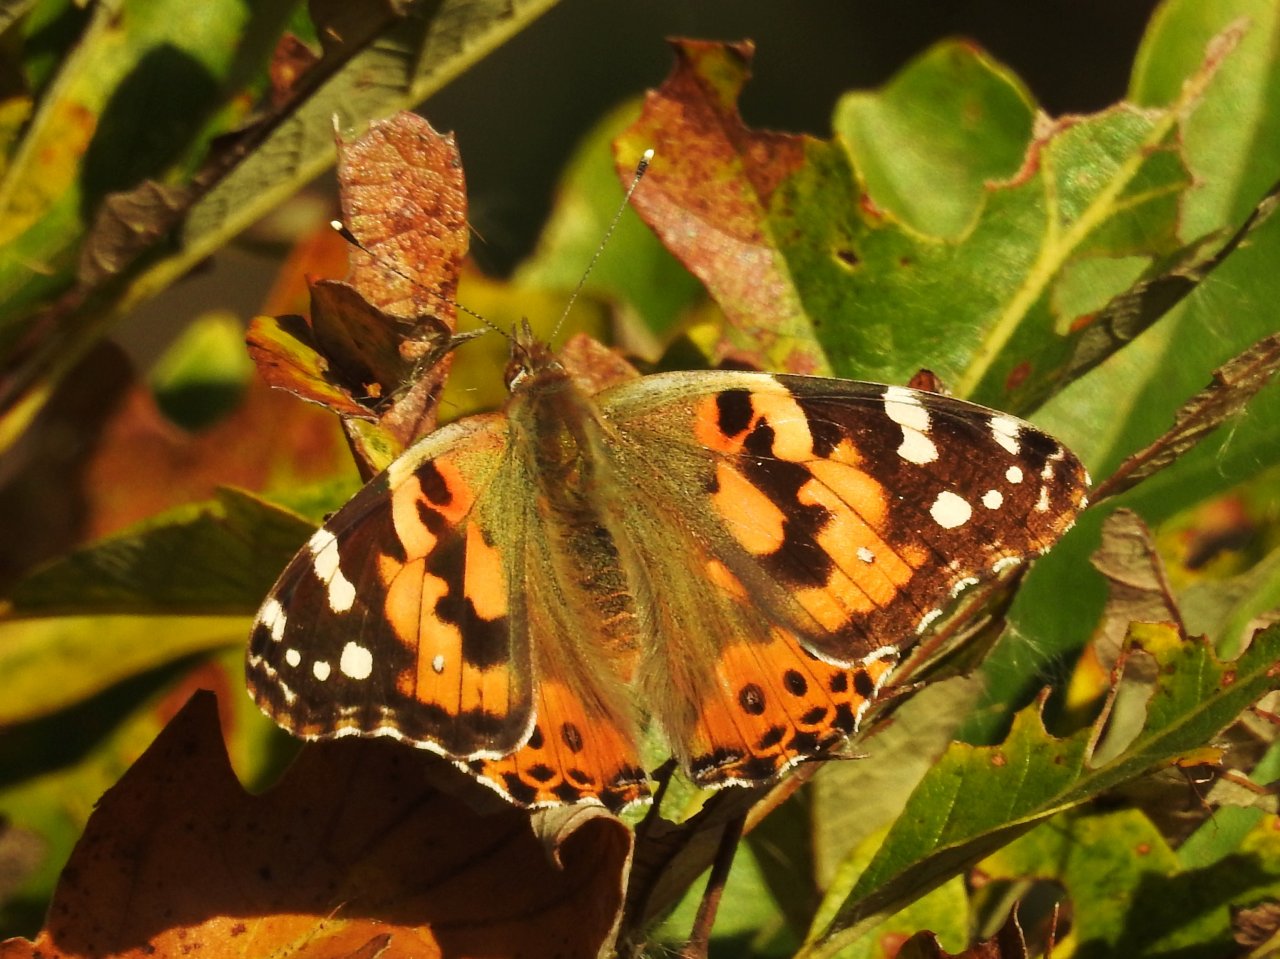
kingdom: Animalia
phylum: Arthropoda
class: Insecta
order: Lepidoptera
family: Nymphalidae
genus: Vanessa
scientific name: Vanessa cardui
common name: Painted Lady
